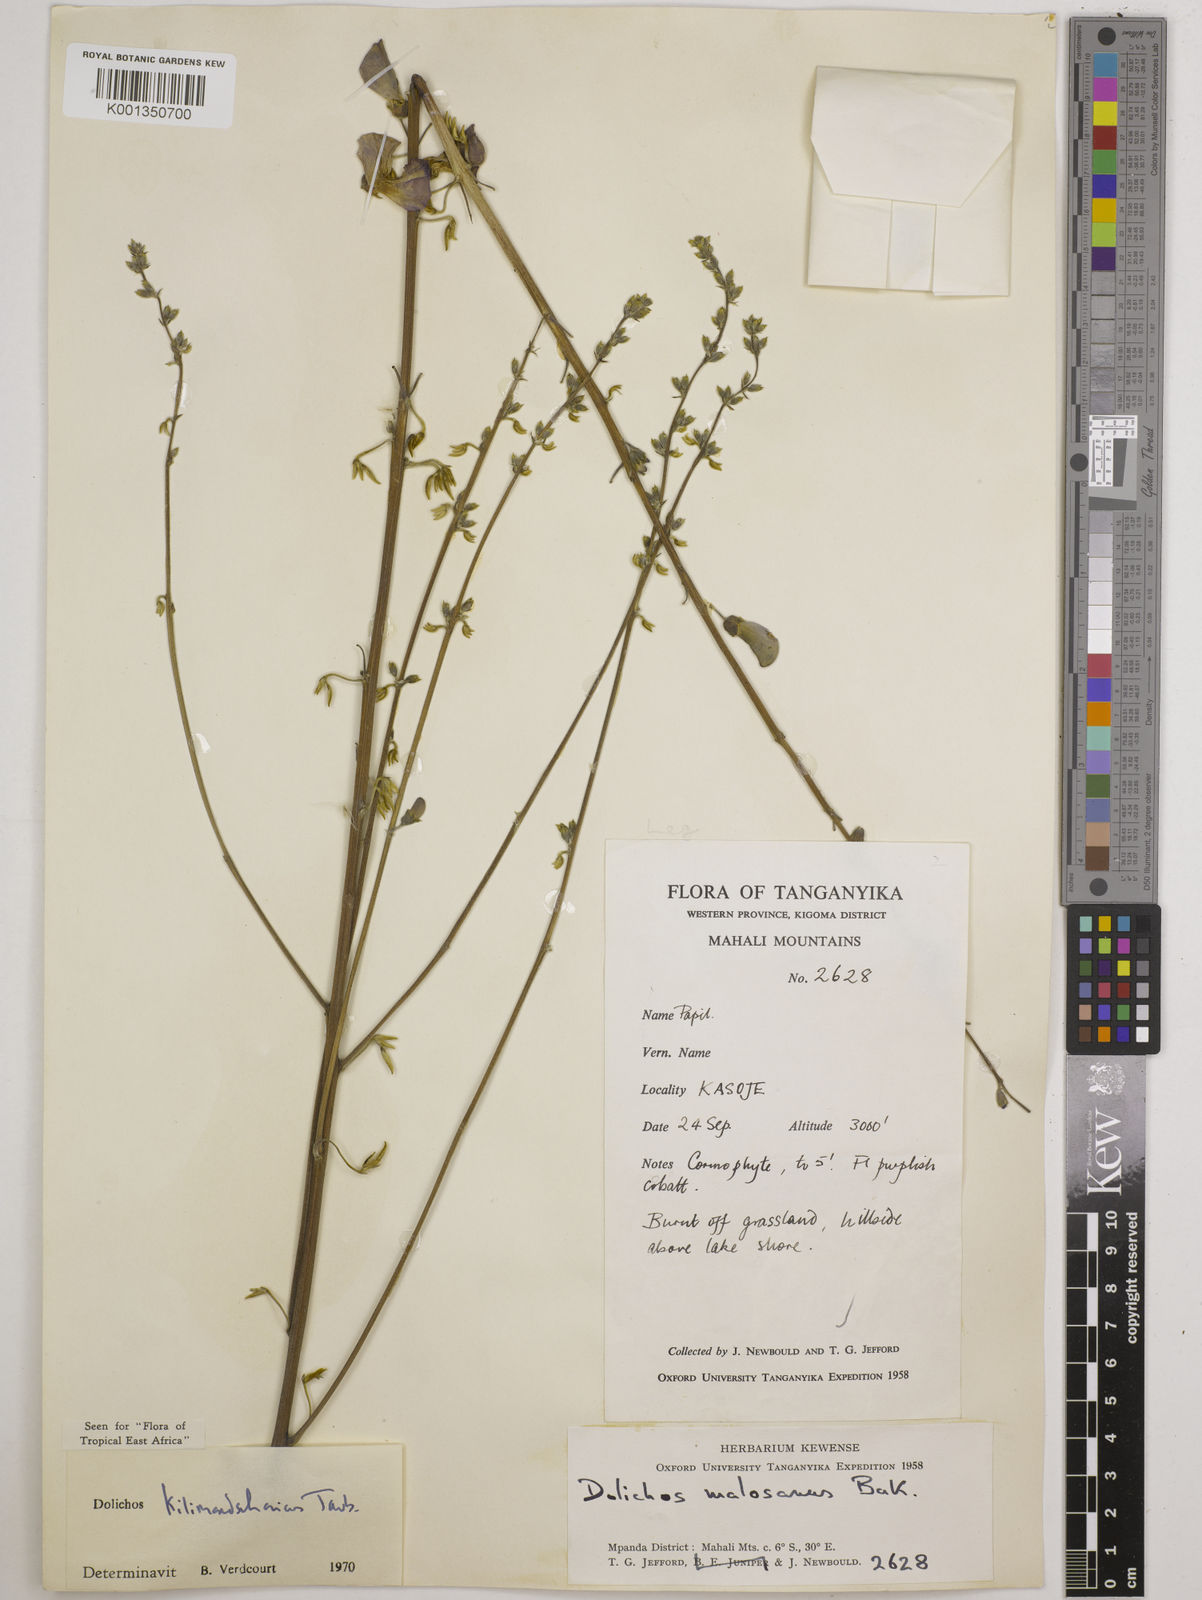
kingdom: Plantae
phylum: Tracheophyta
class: Magnoliopsida
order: Fabales
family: Fabaceae
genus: Dolichos
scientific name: Dolichos kilimandscharicus
